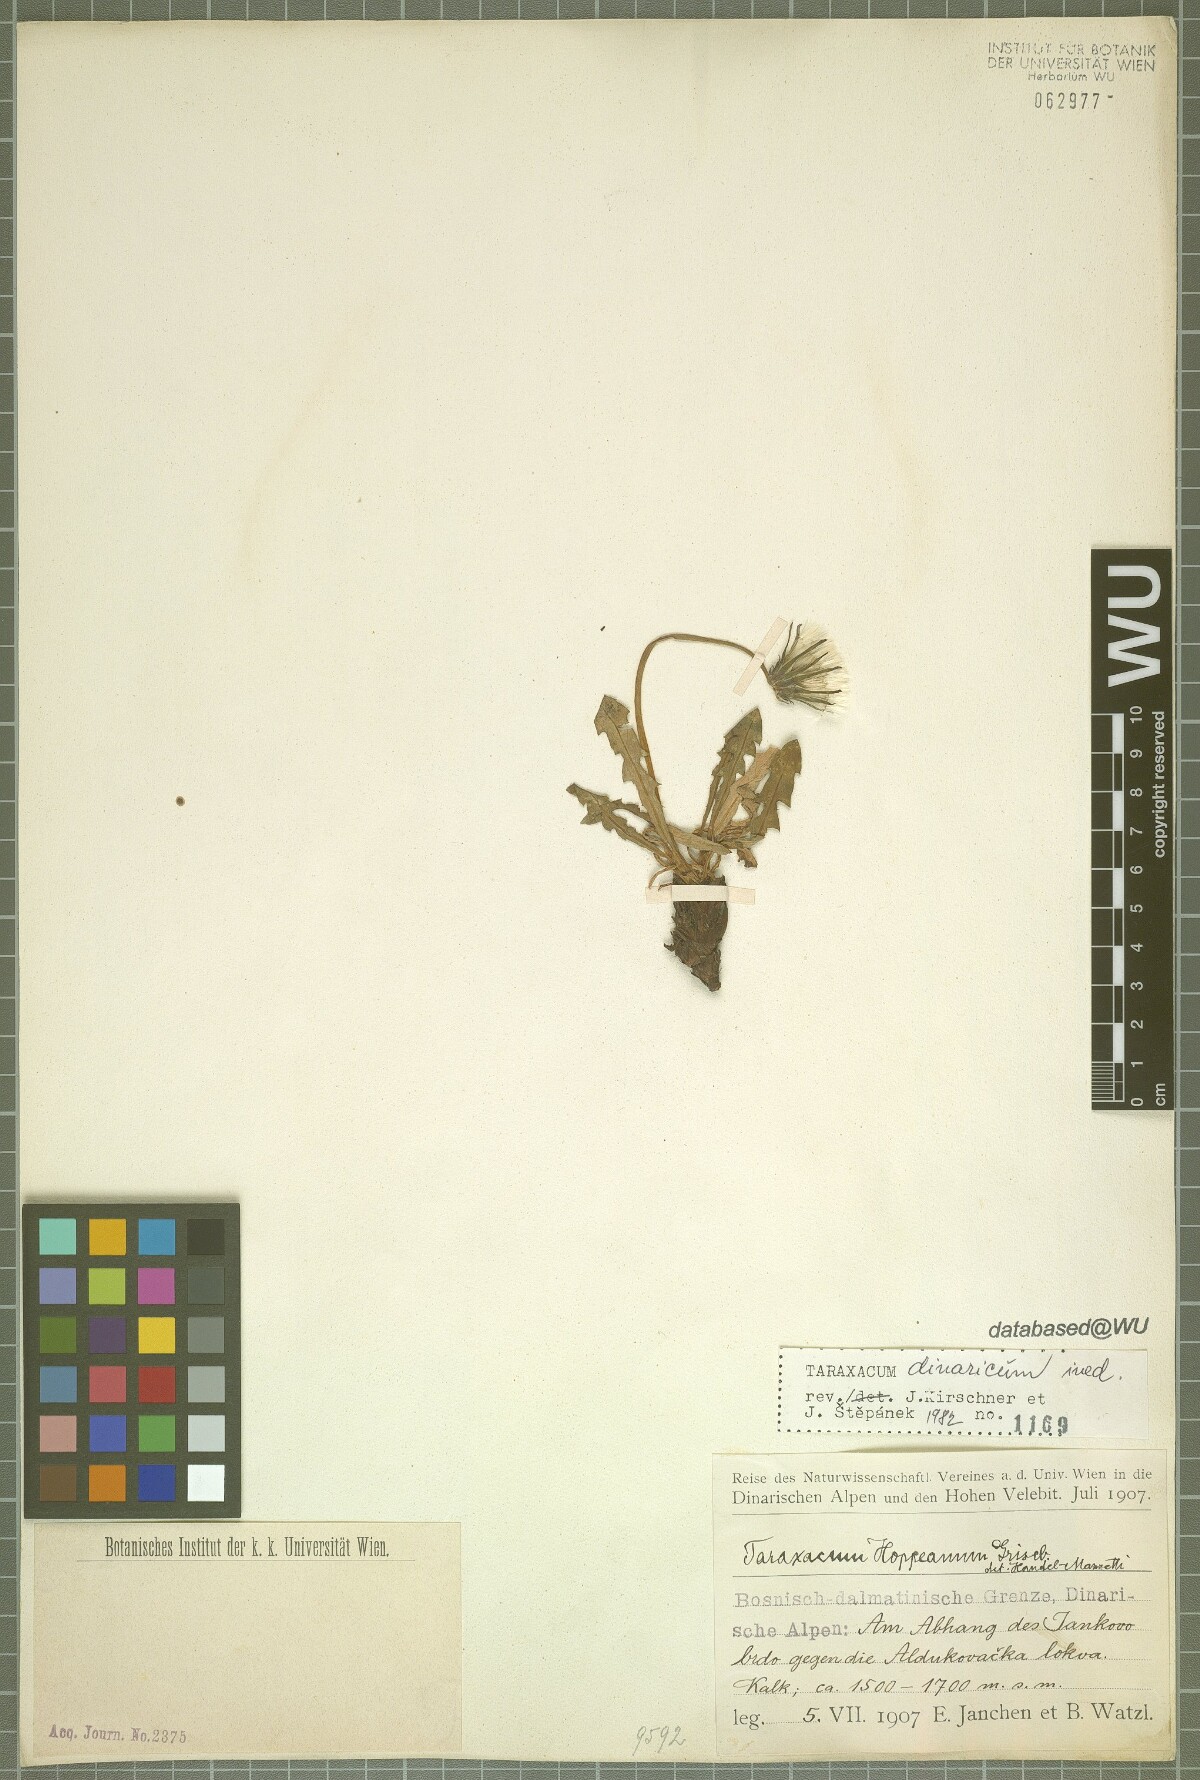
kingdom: Plantae
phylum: Tracheophyta
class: Magnoliopsida
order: Asterales
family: Asteraceae
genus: Taraxacum
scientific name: Taraxacum
